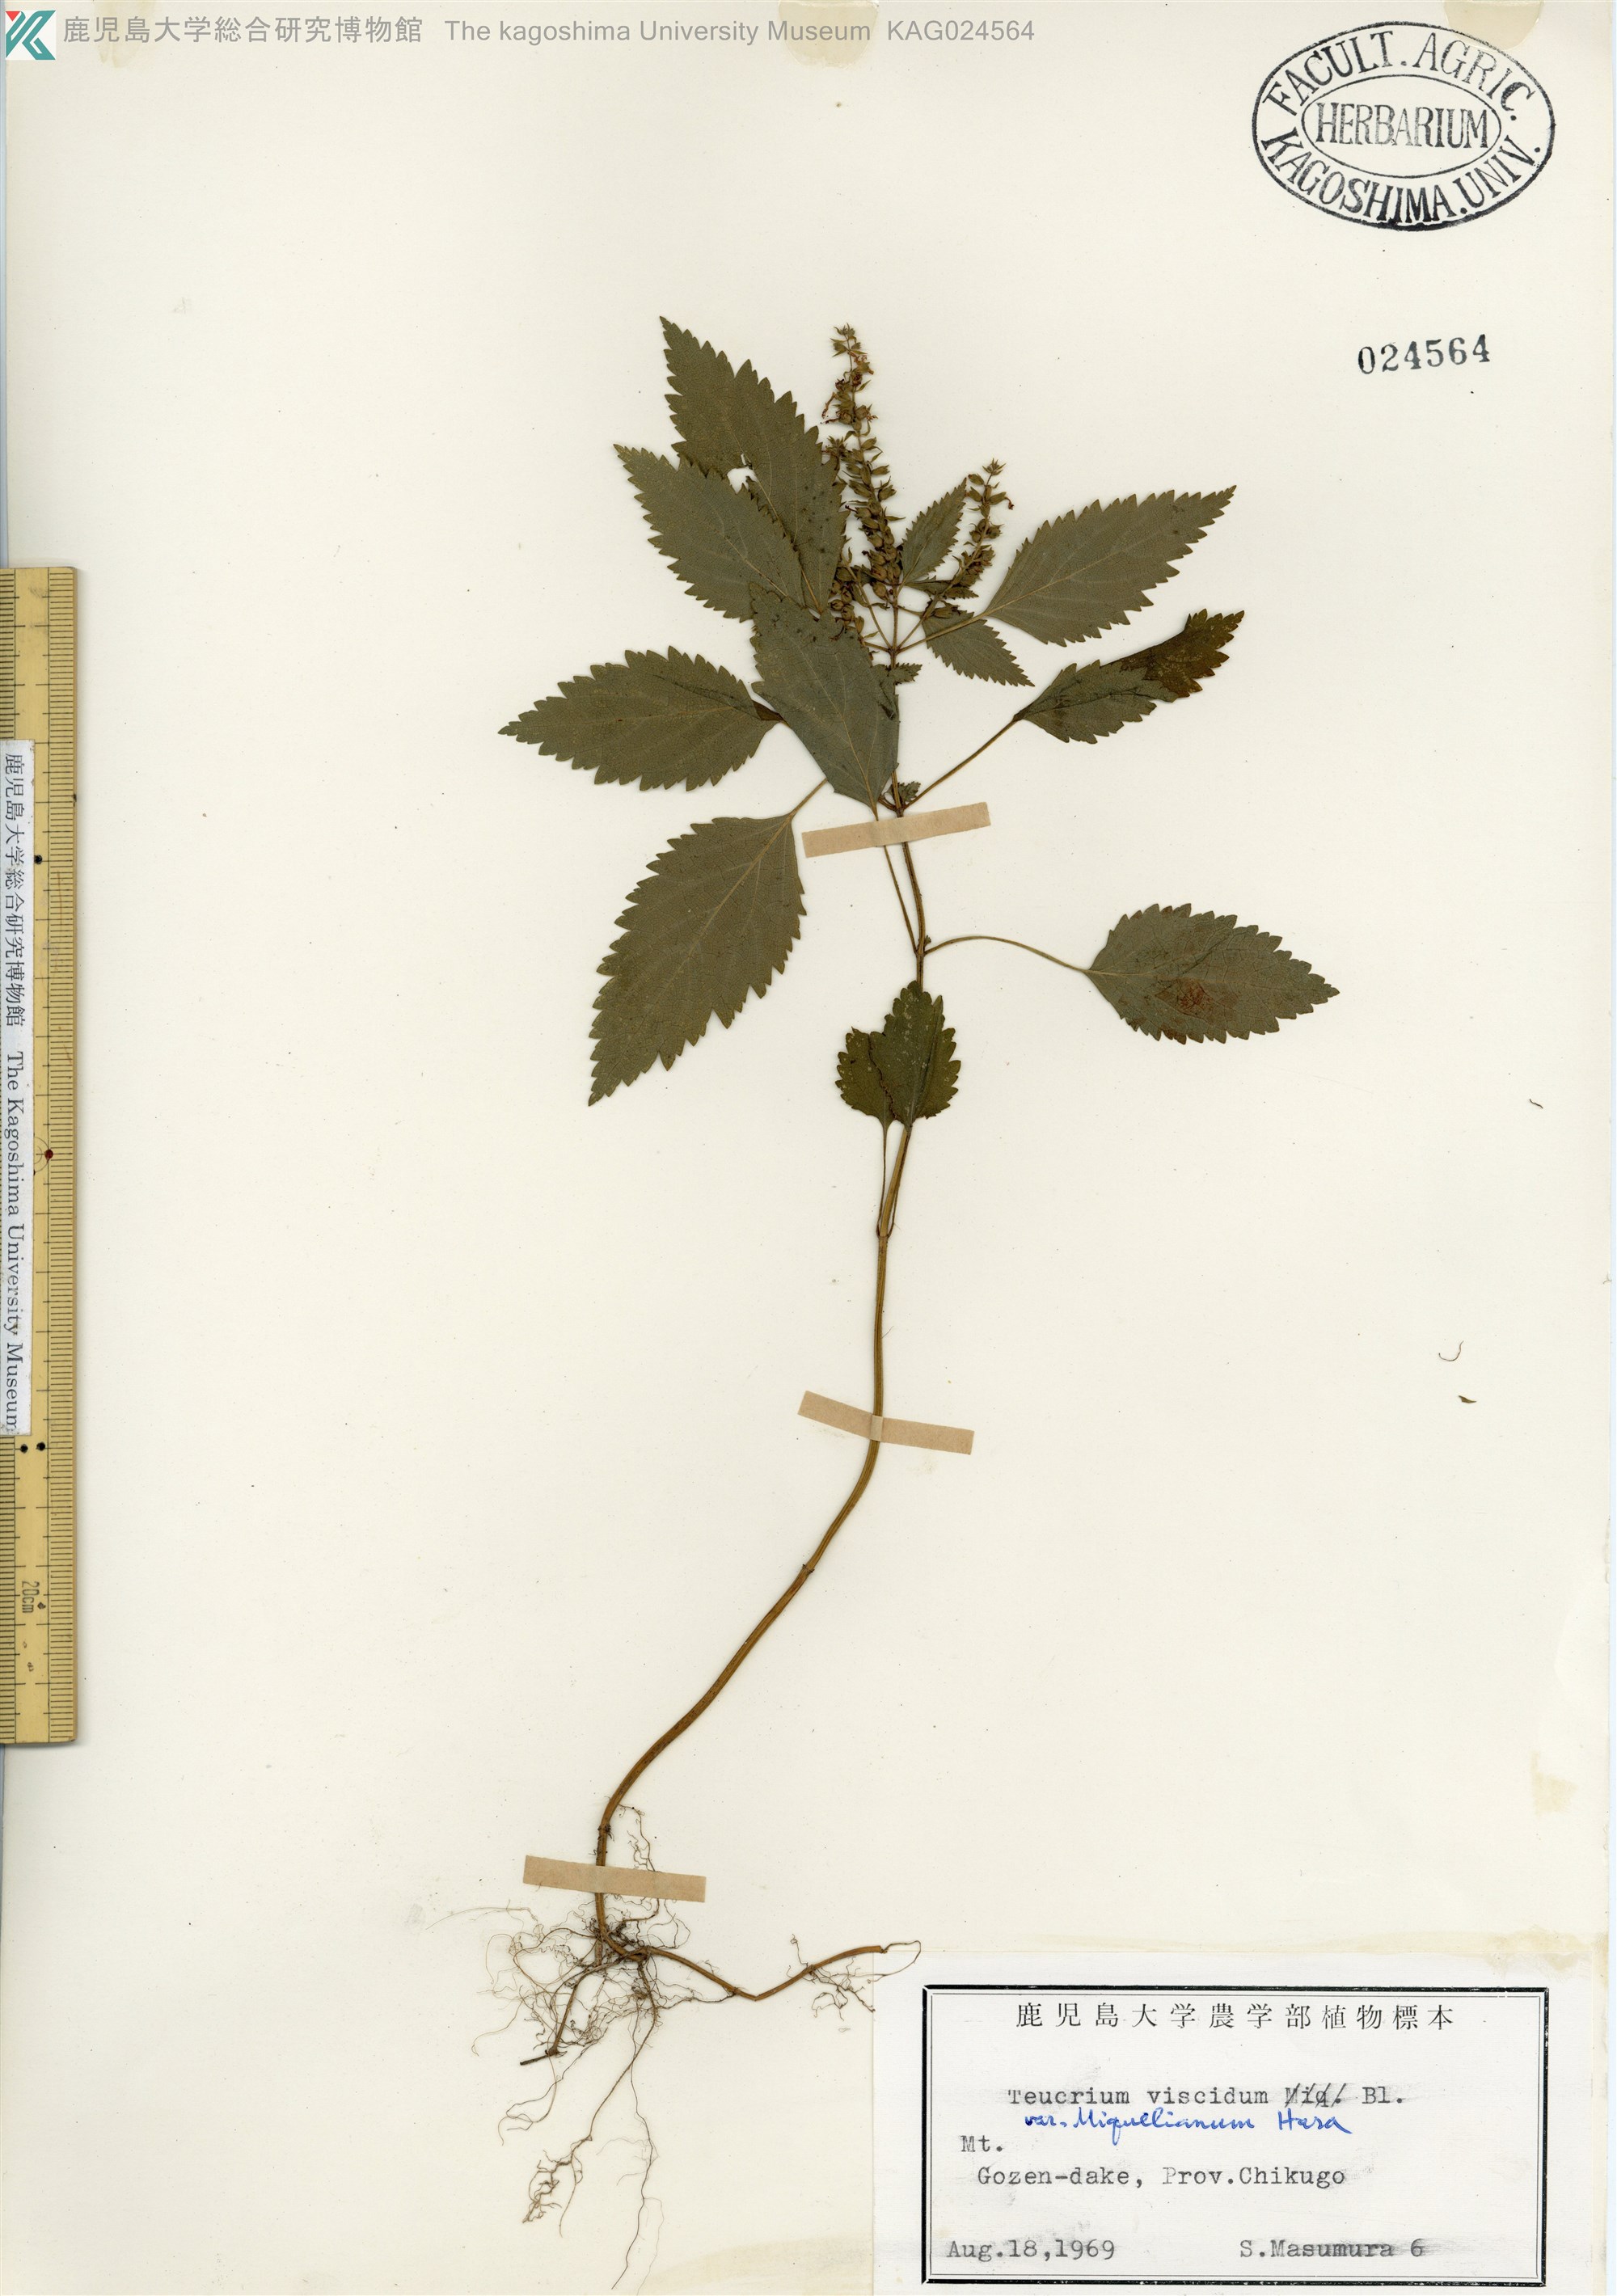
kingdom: Plantae
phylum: Tracheophyta
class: Magnoliopsida
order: Lamiales
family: Lamiaceae
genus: Teucrium
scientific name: Teucrium viscidum
